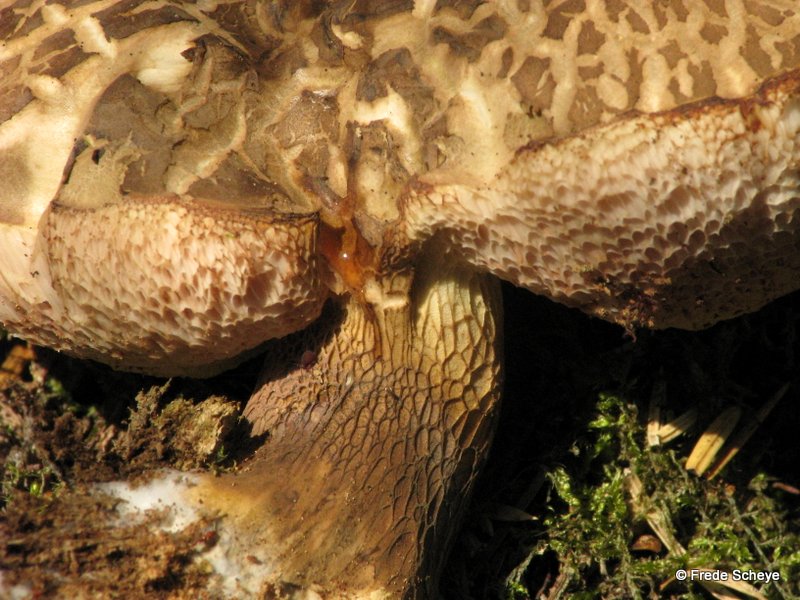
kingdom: Fungi
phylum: Basidiomycota
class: Agaricomycetes
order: Boletales
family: Boletaceae
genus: Tylopilus
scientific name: Tylopilus felleus
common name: galderørhat
